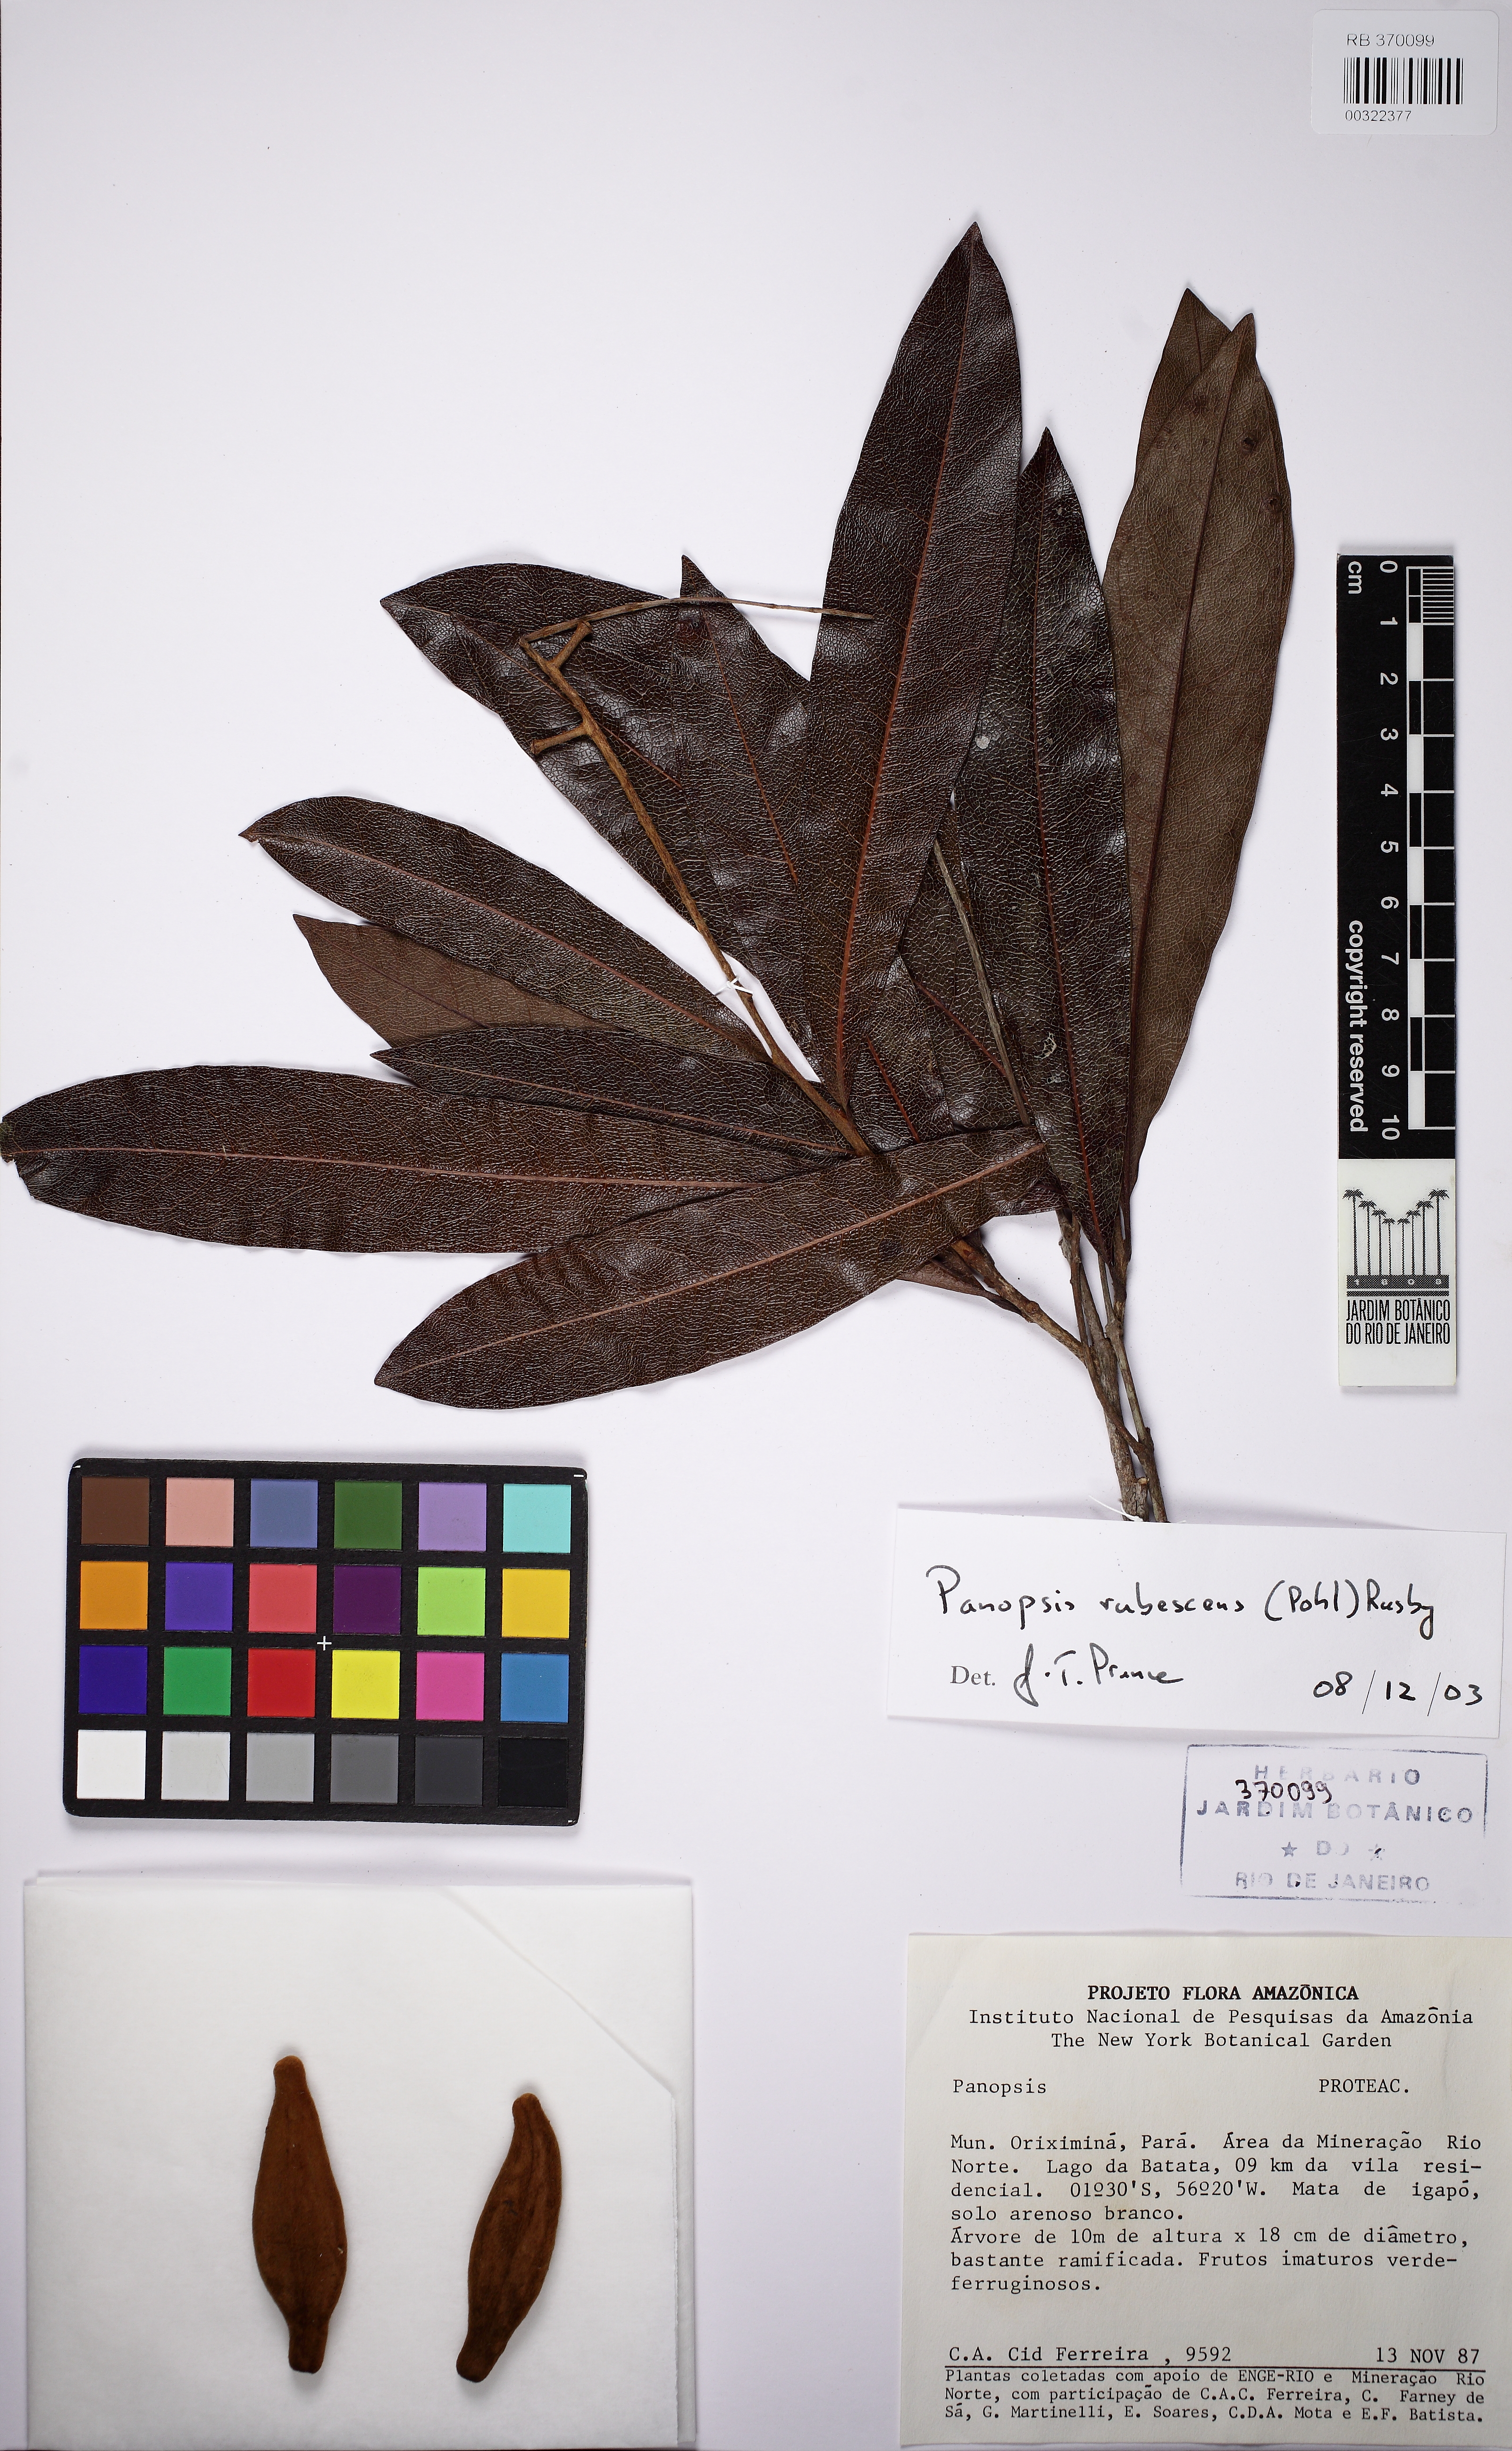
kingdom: Plantae
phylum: Tracheophyta
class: Magnoliopsida
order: Proteales
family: Proteaceae
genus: Panopsis
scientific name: Panopsis rubescens
